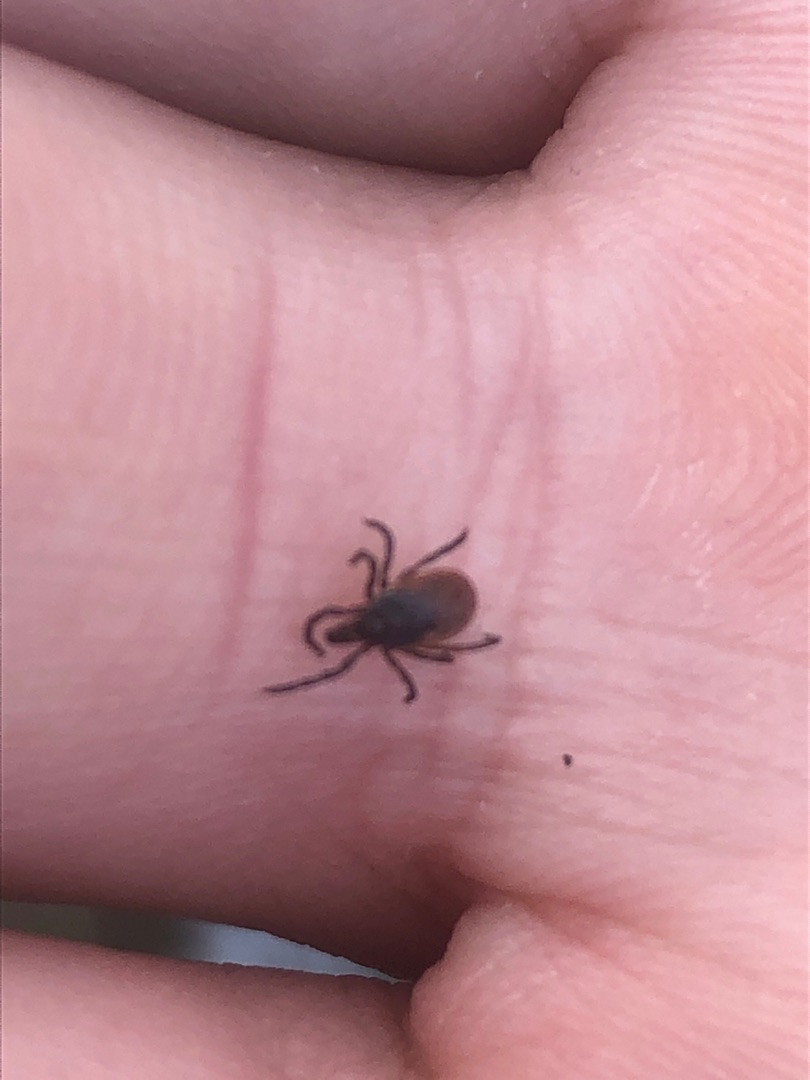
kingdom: Animalia
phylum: Arthropoda
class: Arachnida
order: Ixodida
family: Ixodidae
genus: Ixodes
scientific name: Ixodes ricinus
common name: Skovflåt
